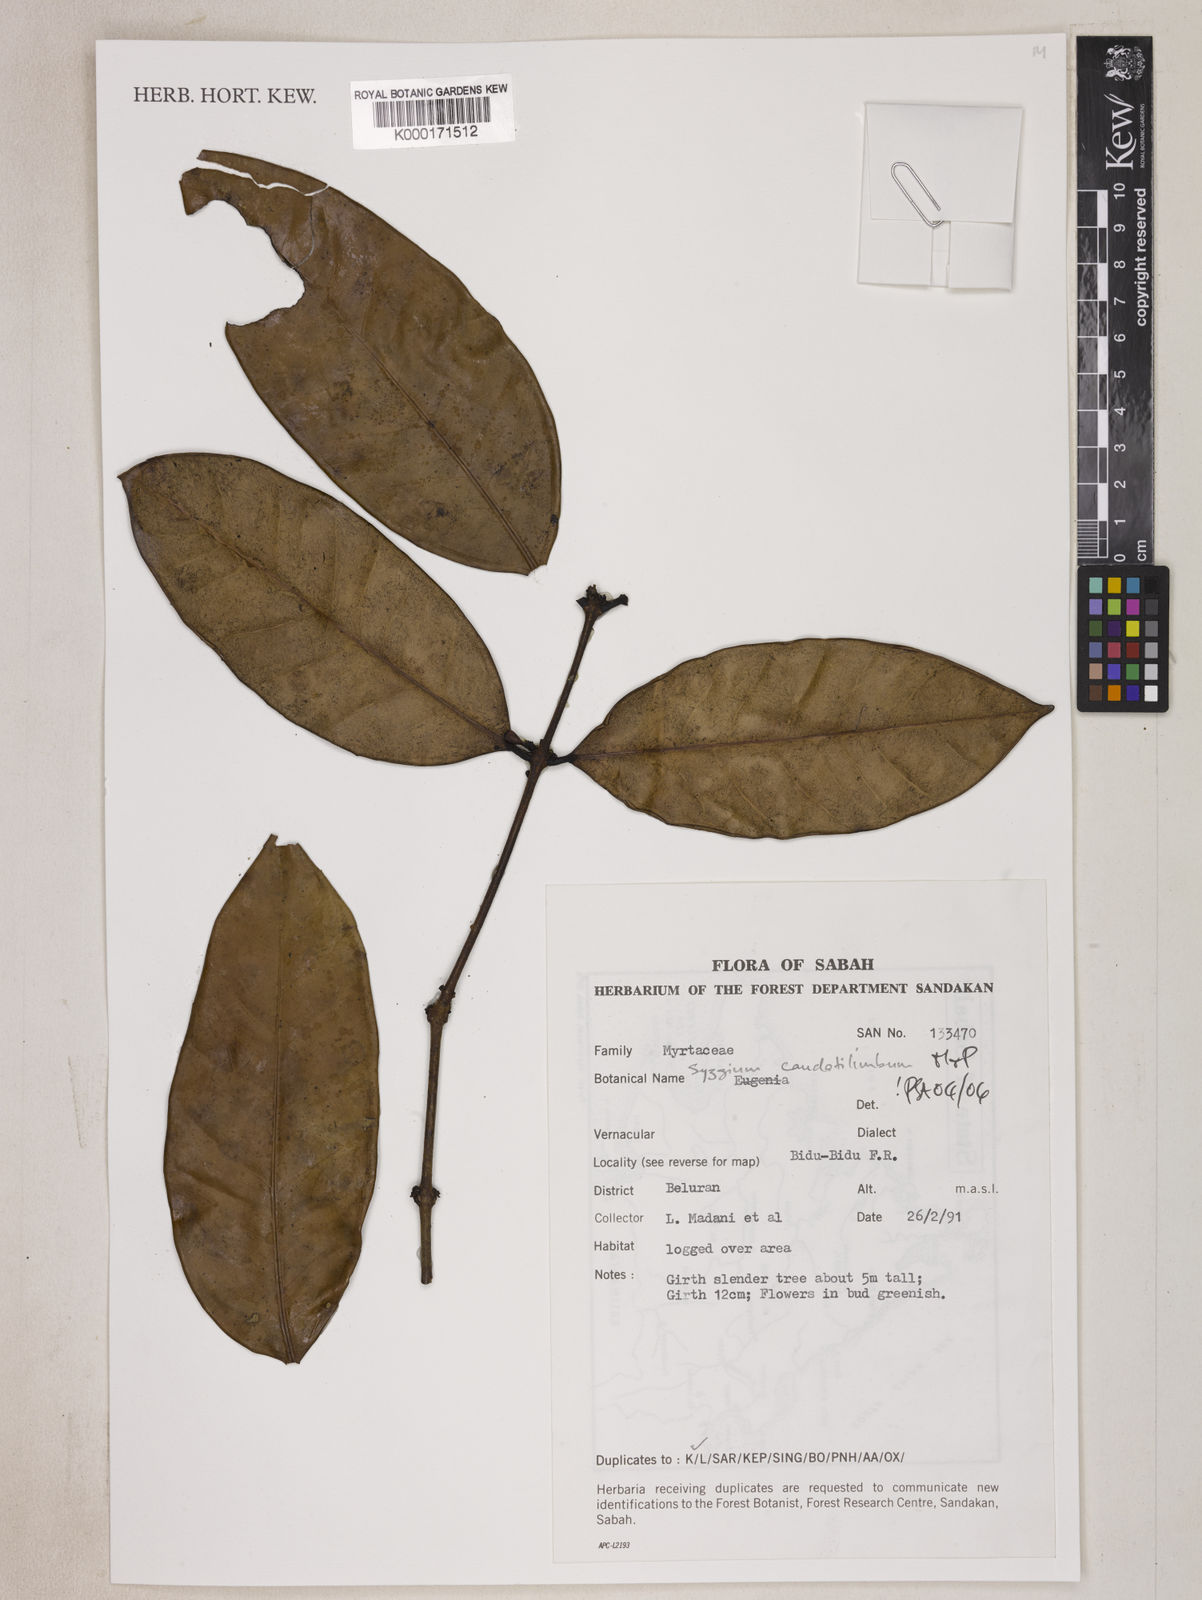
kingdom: Plantae
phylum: Tracheophyta
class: Magnoliopsida
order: Myrtales
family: Myrtaceae
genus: Syzygium
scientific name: Syzygium caudatilimbum
